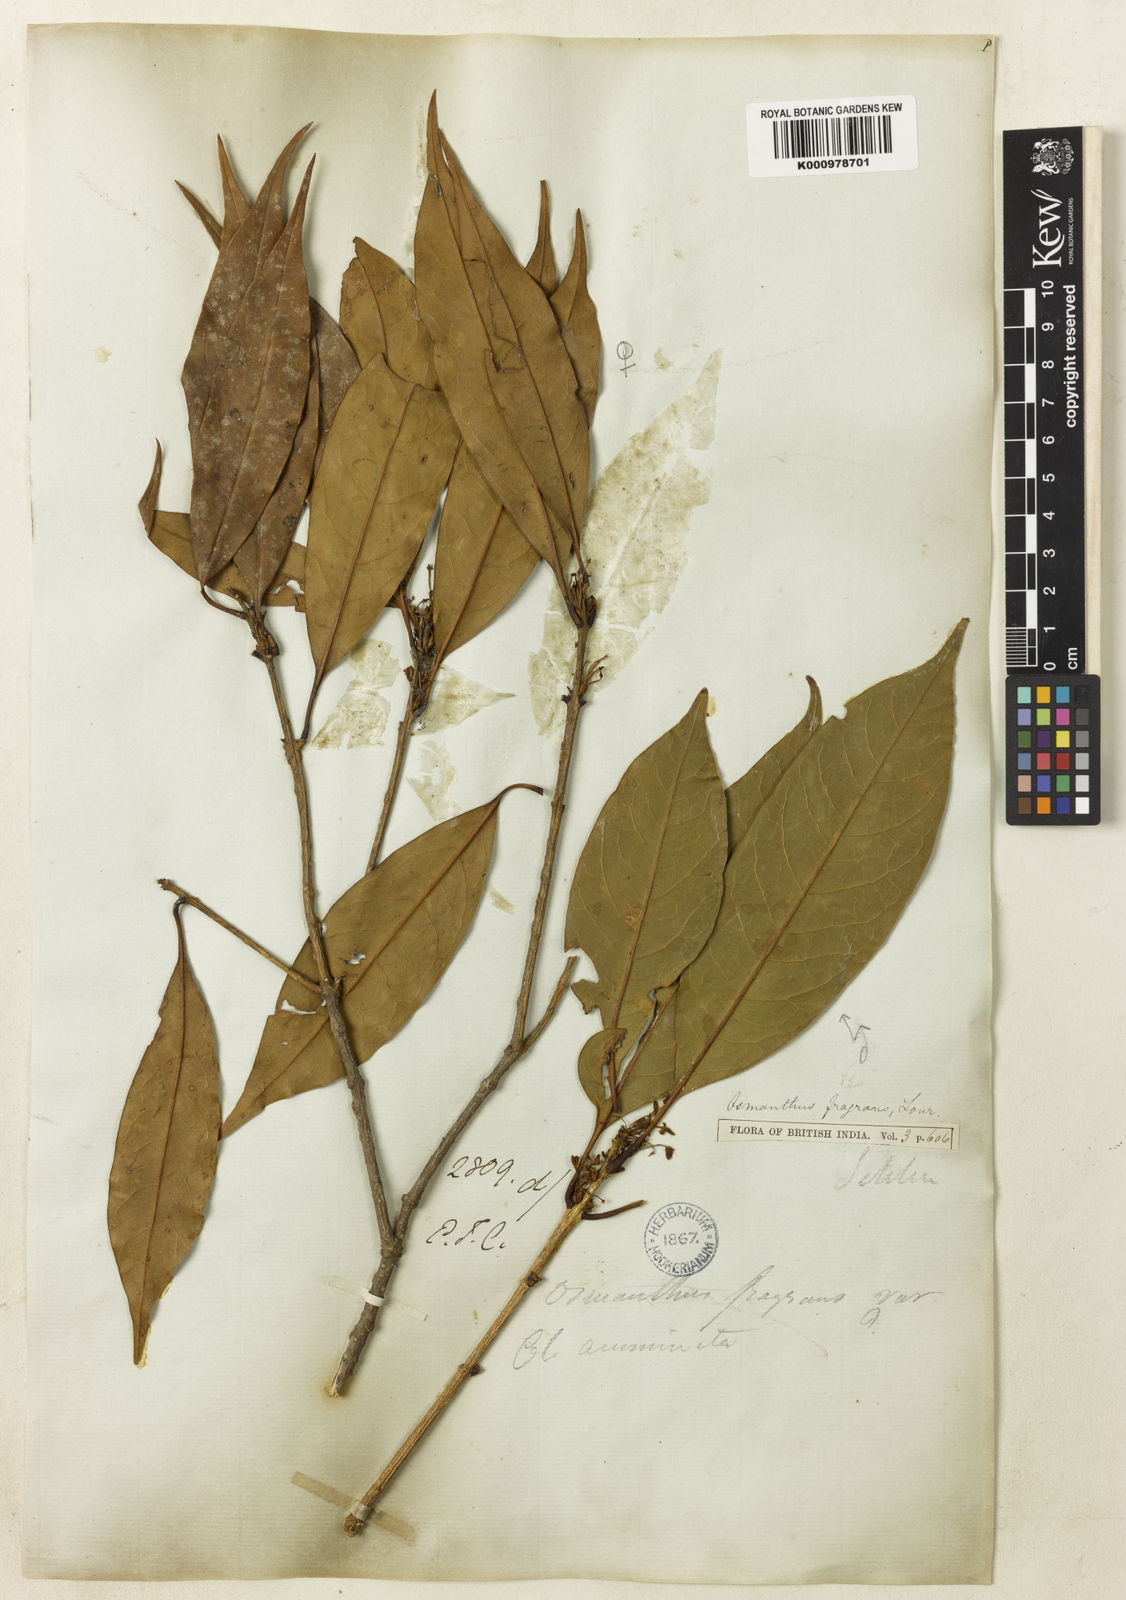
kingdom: Plantae
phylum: Tracheophyta
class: Magnoliopsida
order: Lamiales
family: Oleaceae
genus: Osmanthus
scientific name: Osmanthus fragrans
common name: Sweet osmanthus
